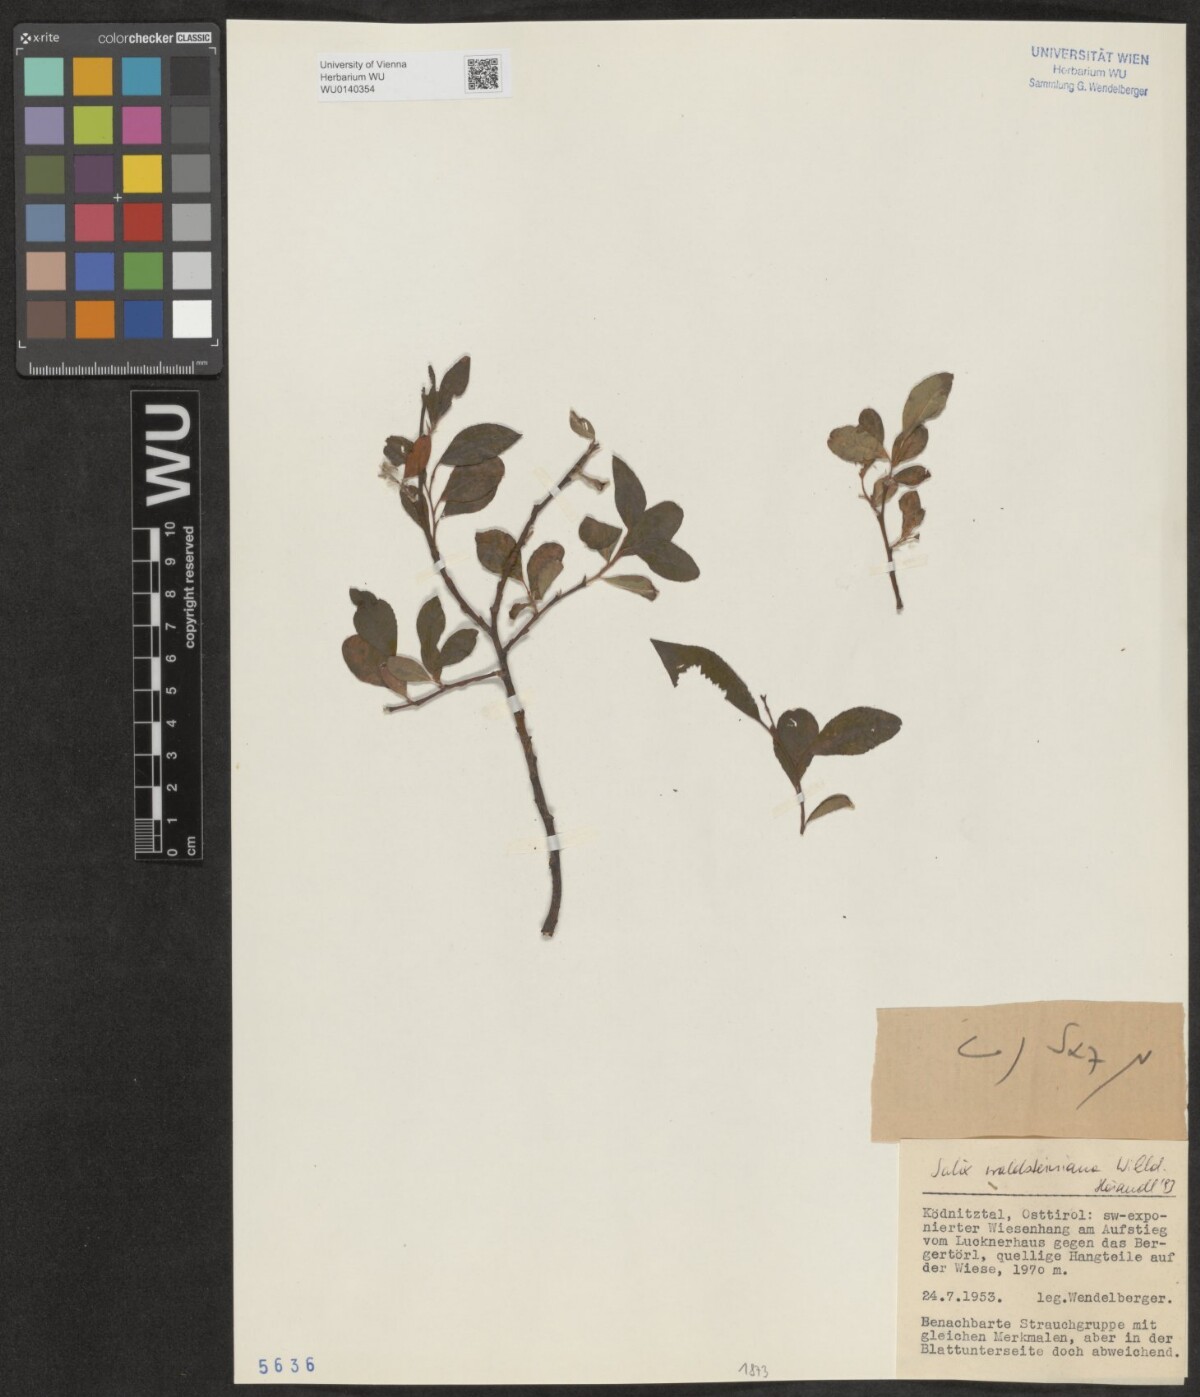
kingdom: Plantae
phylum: Tracheophyta
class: Magnoliopsida
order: Malpighiales
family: Salicaceae
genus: Salix
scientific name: Salix waldsteiniana
